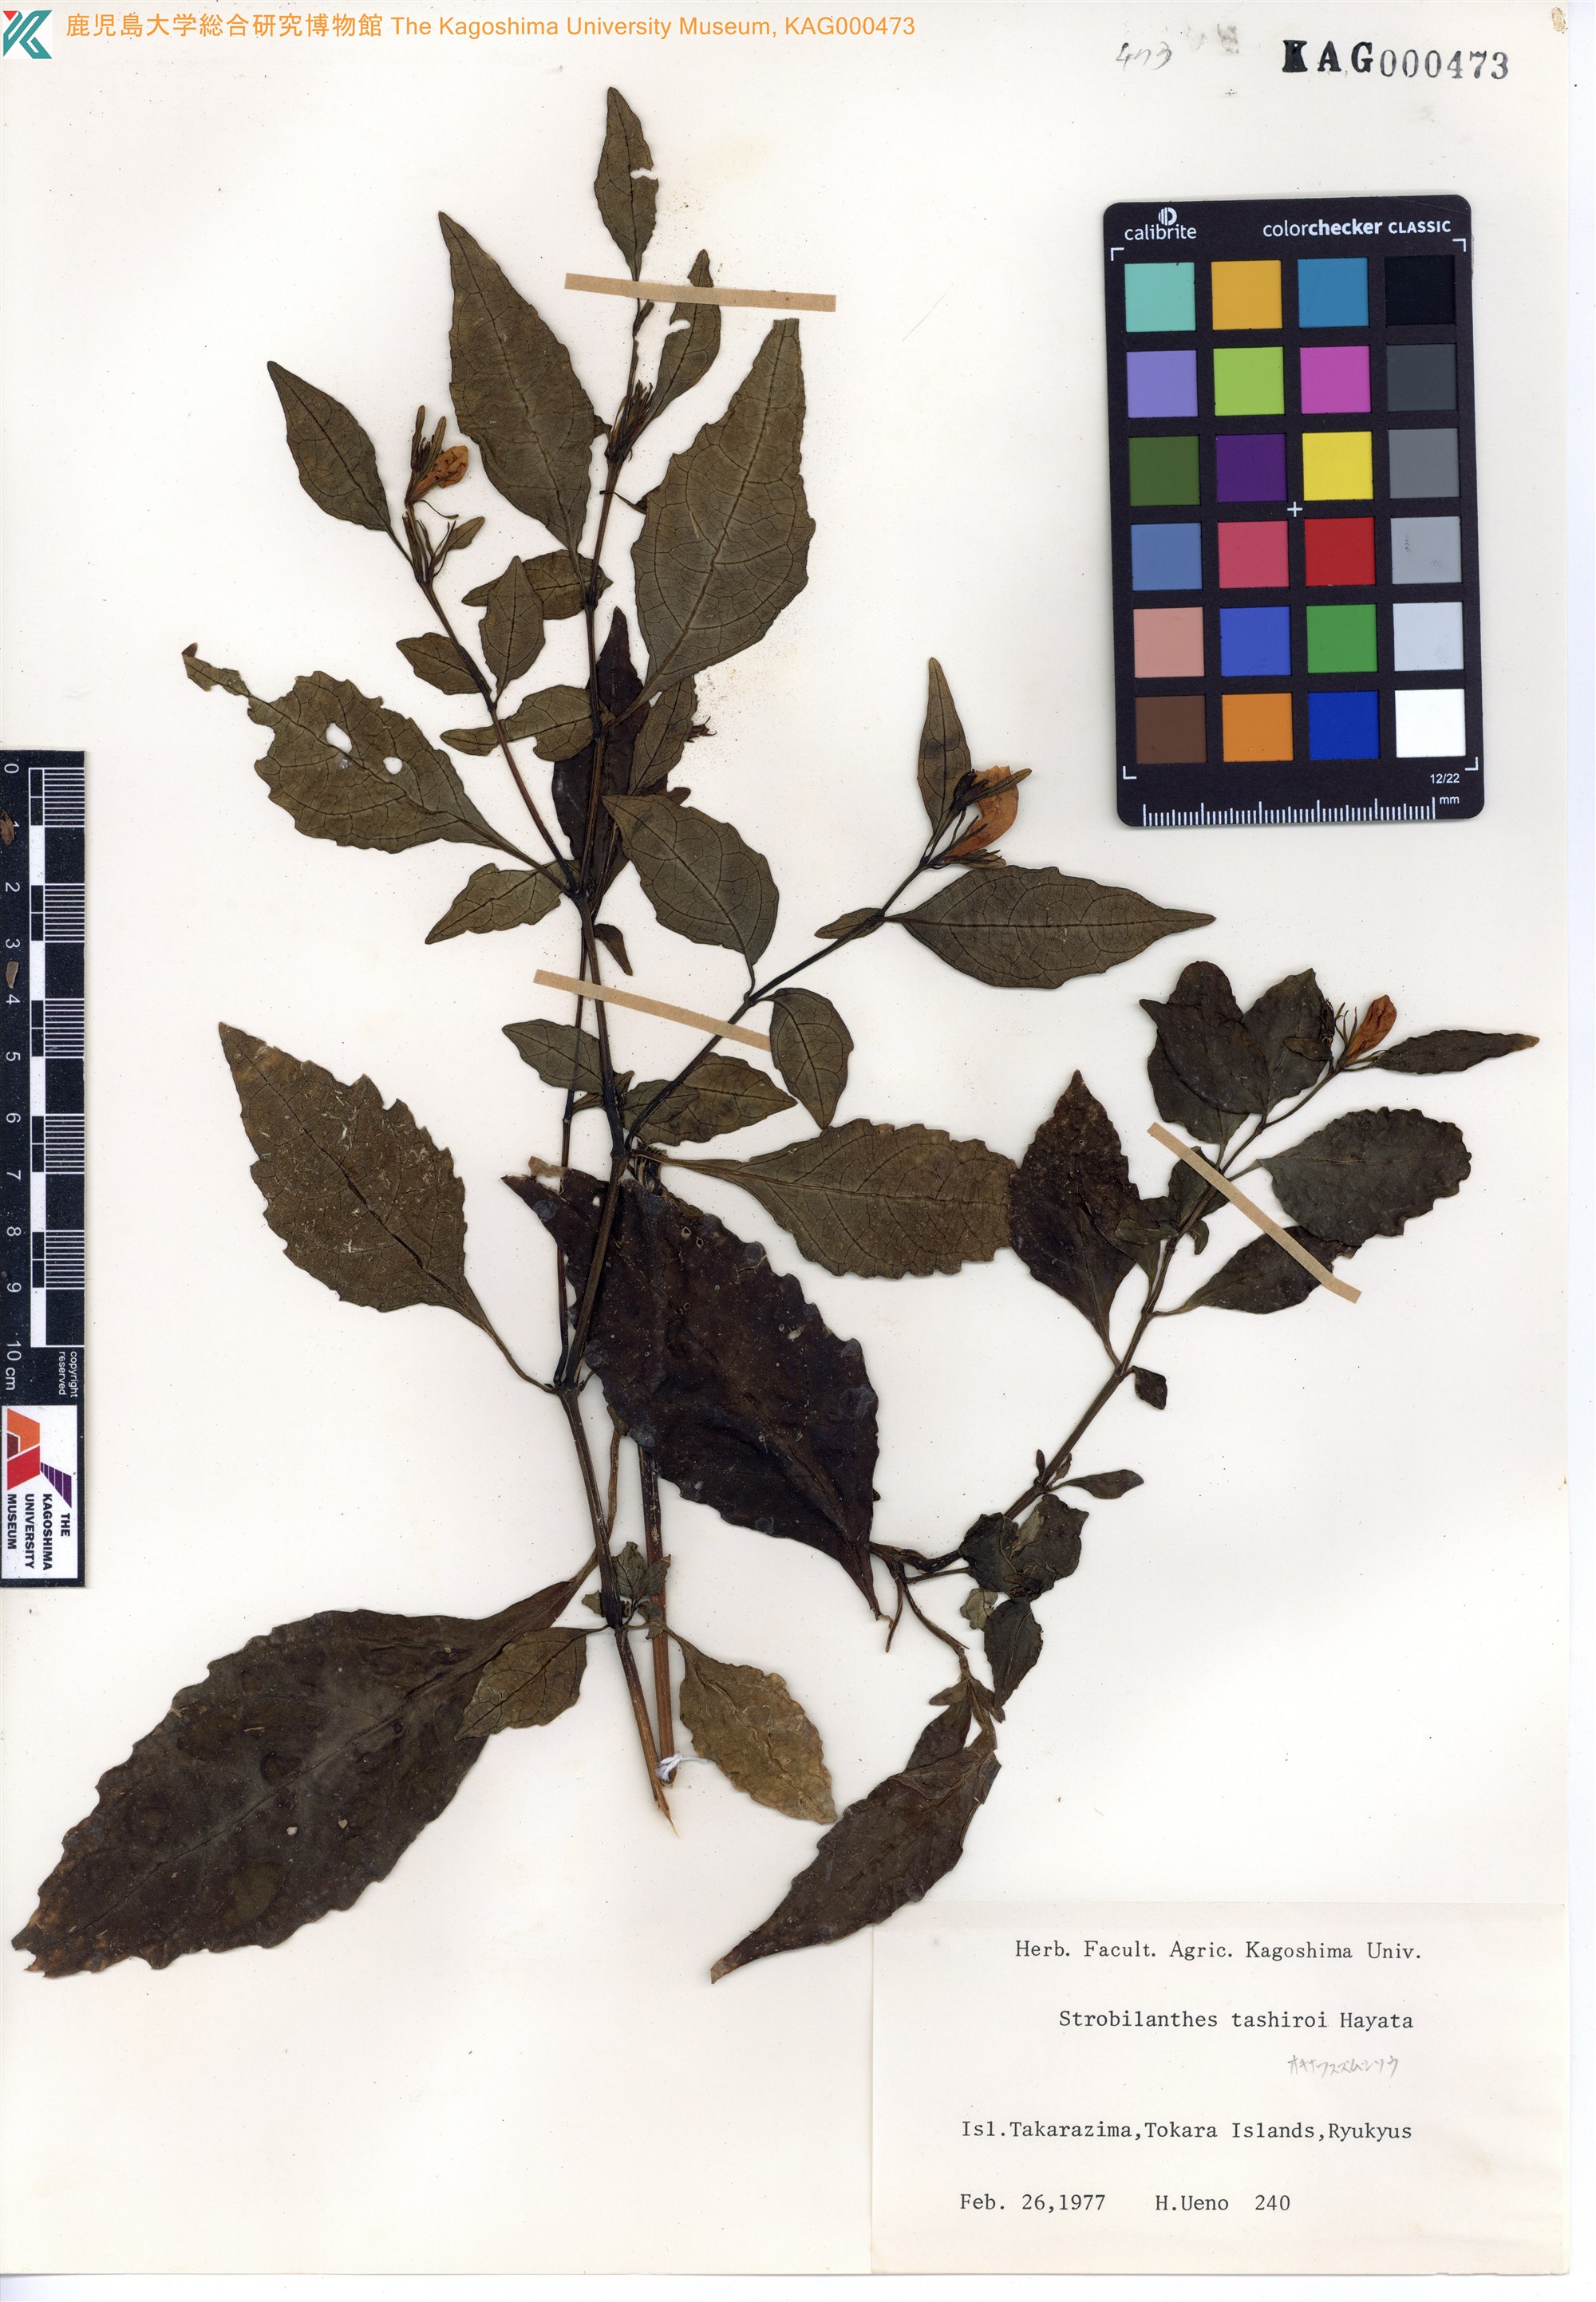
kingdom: Plantae
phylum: Tracheophyta
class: Magnoliopsida
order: Lamiales
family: Acanthaceae
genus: Strobilanthes
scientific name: Strobilanthes flexicaulis
